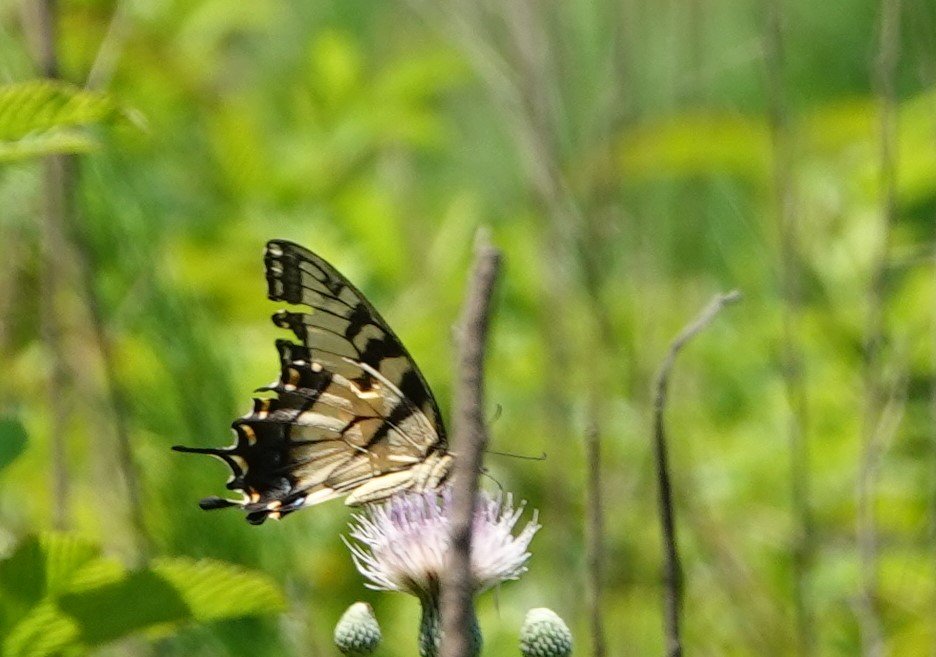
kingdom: Animalia
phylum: Arthropoda
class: Insecta
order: Lepidoptera
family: Papilionidae
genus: Pterourus
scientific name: Pterourus glaucus
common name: Eastern Tiger Swallowtail
